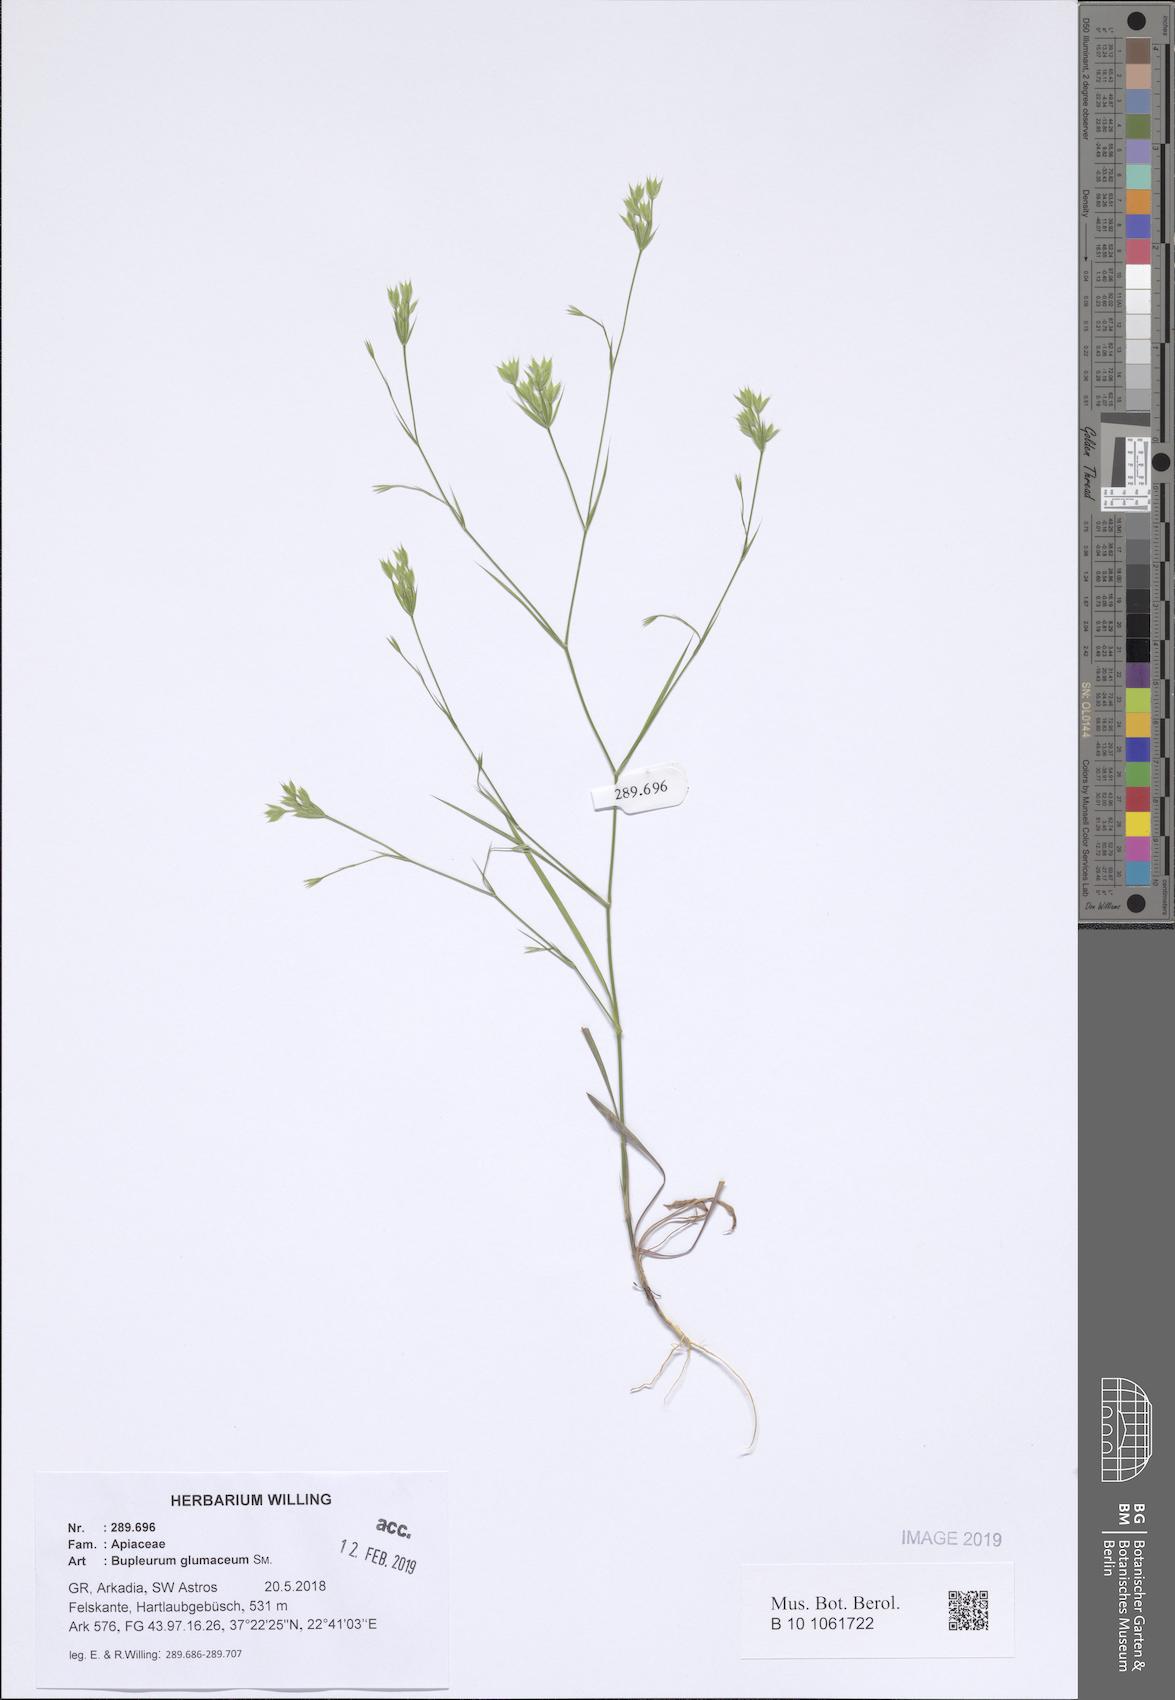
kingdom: Plantae
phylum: Tracheophyta
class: Magnoliopsida
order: Apiales
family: Apiaceae
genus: Bupleurum
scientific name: Bupleurum glumaceum
